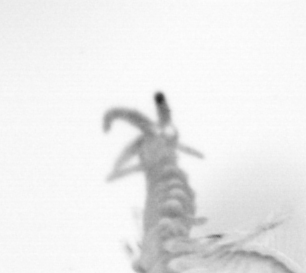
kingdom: Animalia
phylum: Arthropoda
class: Copepoda
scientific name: Copepoda
